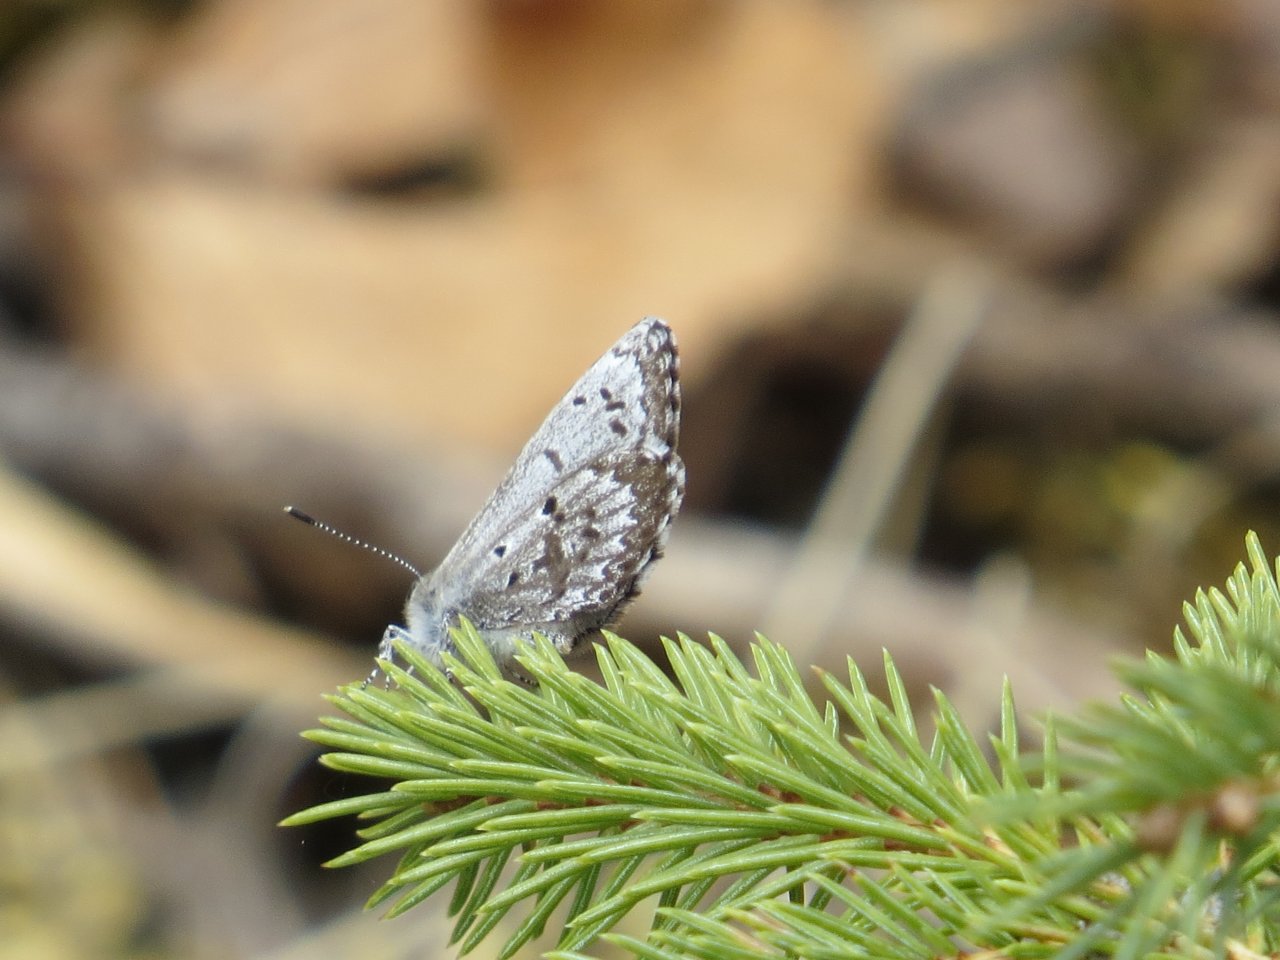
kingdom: Animalia
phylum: Arthropoda
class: Insecta
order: Lepidoptera
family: Lycaenidae
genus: Celastrina
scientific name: Celastrina lucia
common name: Northern Spring Azure
